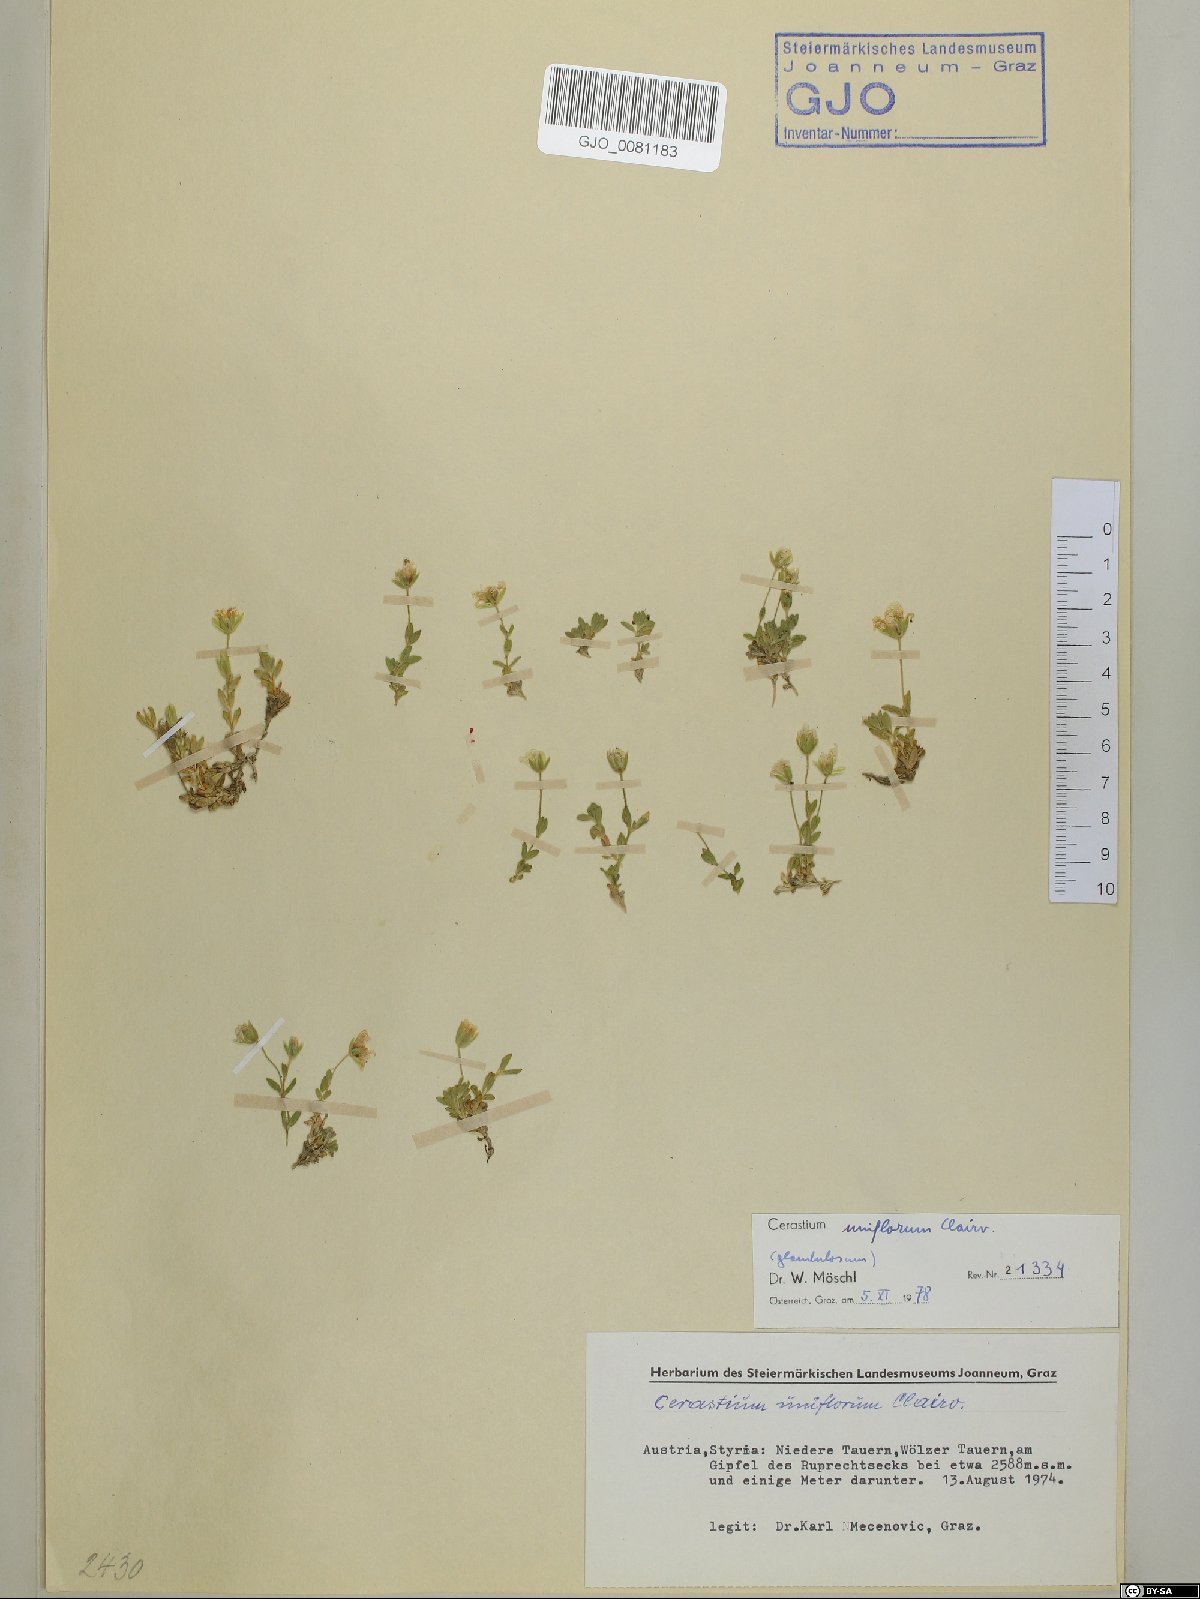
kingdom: Plantae
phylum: Tracheophyta
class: Magnoliopsida
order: Caryophyllales
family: Caryophyllaceae
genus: Cerastium
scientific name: Cerastium uniflorum
